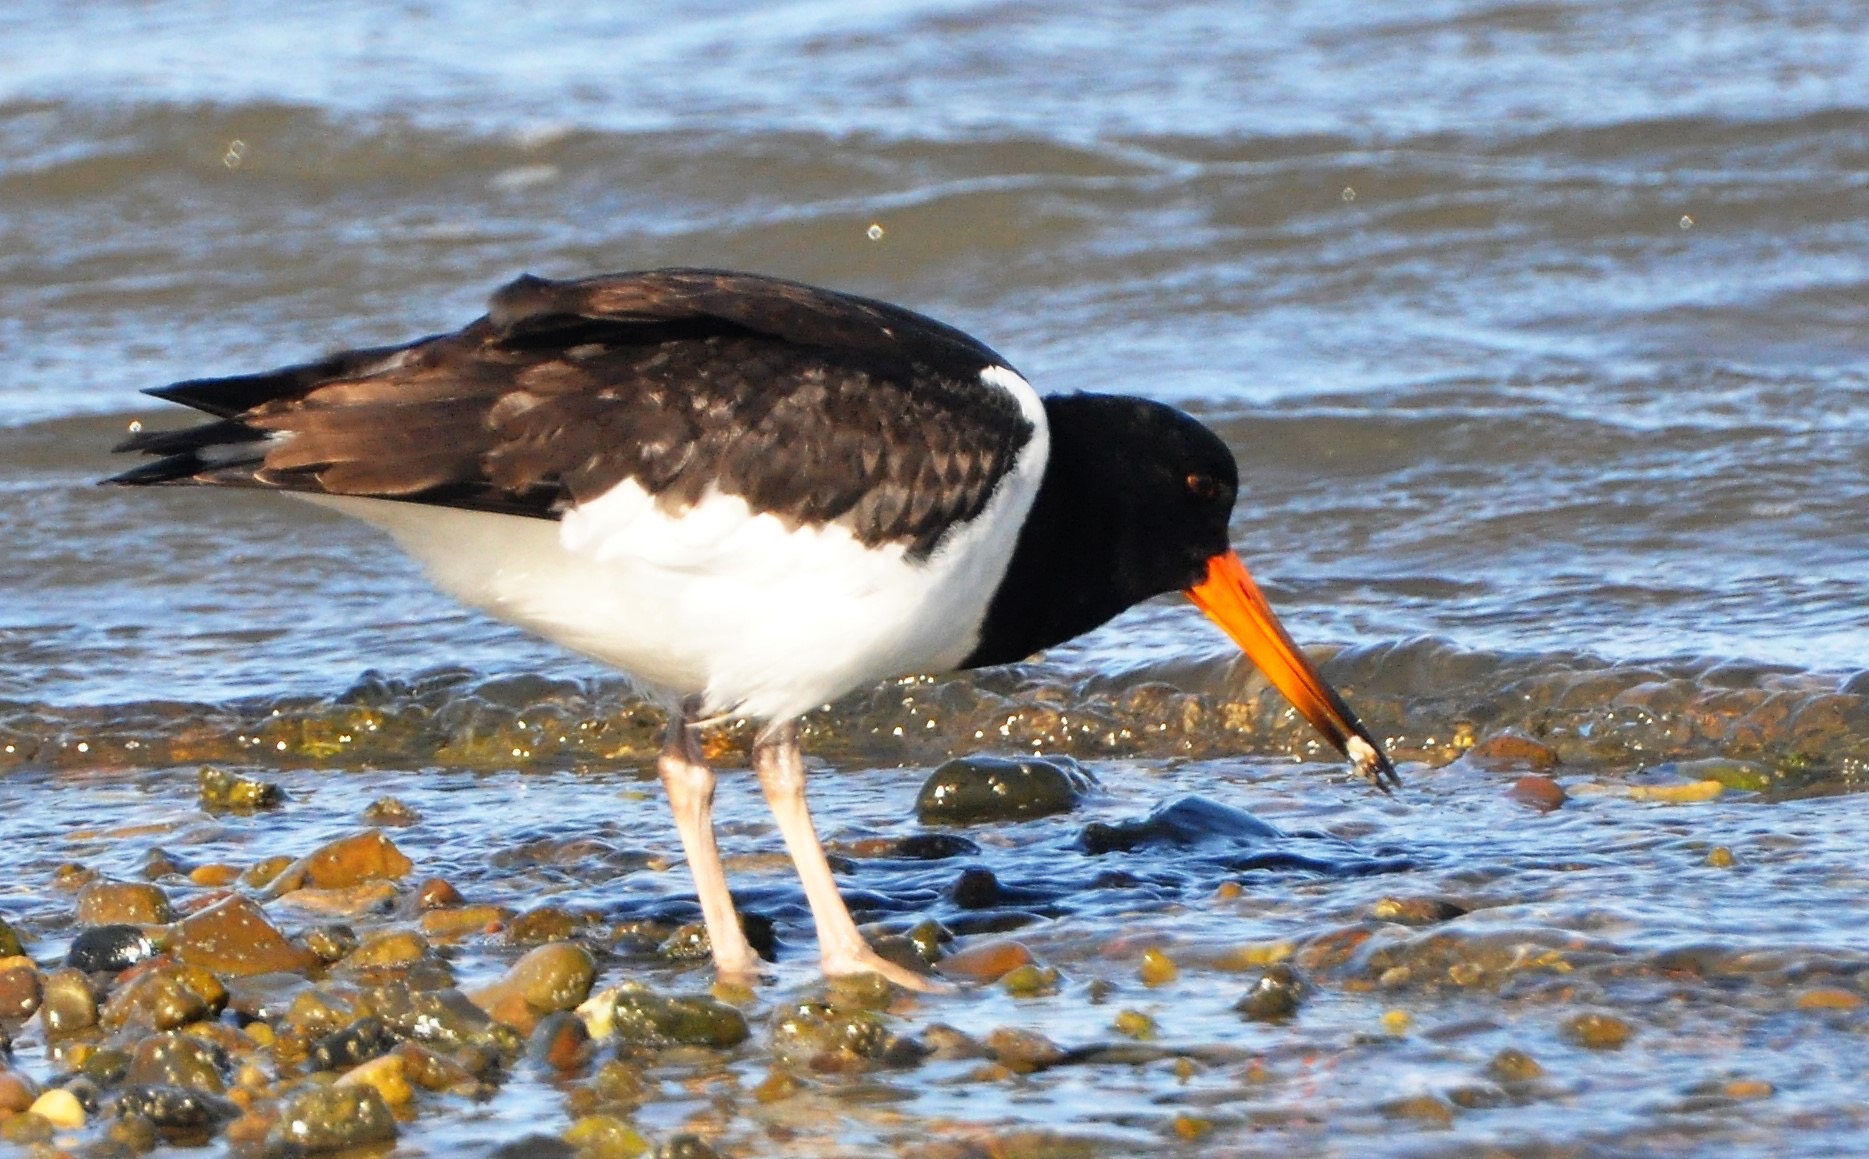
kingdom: Animalia
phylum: Chordata
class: Aves
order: Charadriiformes
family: Haematopodidae
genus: Haematopus
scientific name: Haematopus ostralegus
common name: Strandskade
